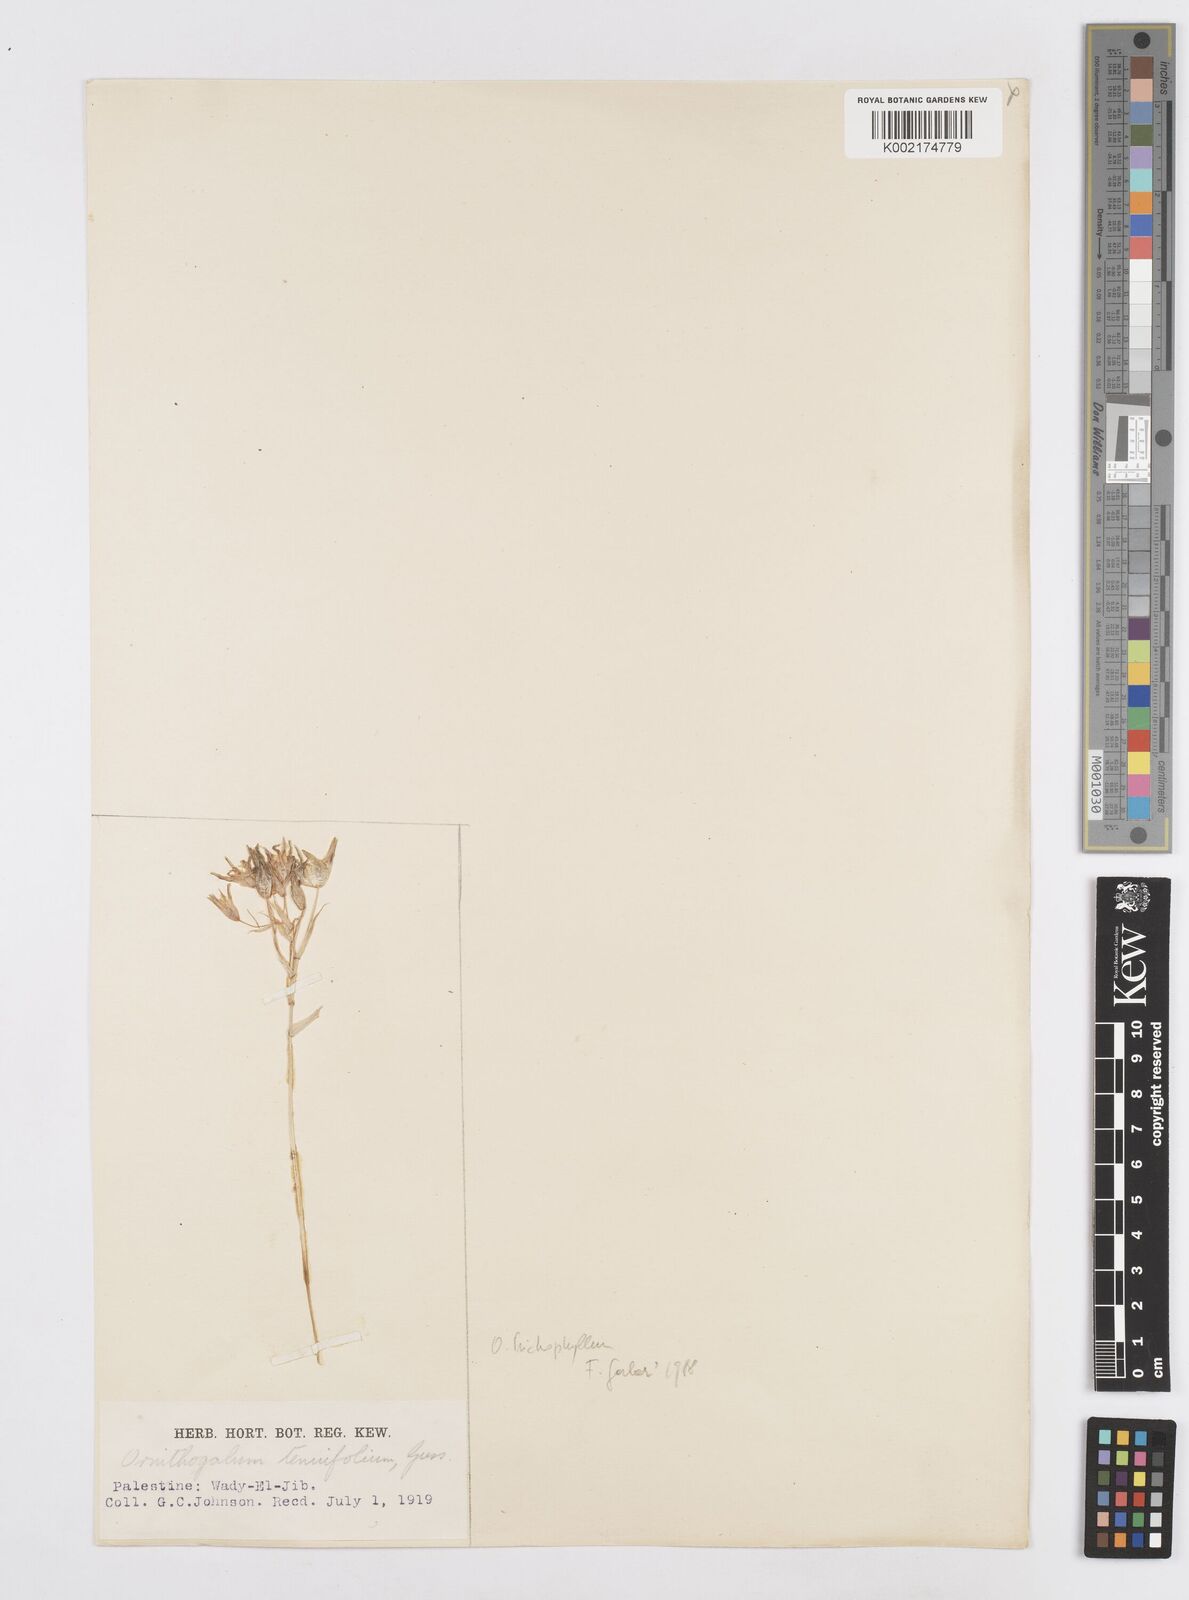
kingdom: Plantae
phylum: Tracheophyta
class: Liliopsida
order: Asparagales
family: Asparagaceae
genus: Ornithogalum
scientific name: Ornithogalum trichophyllum
